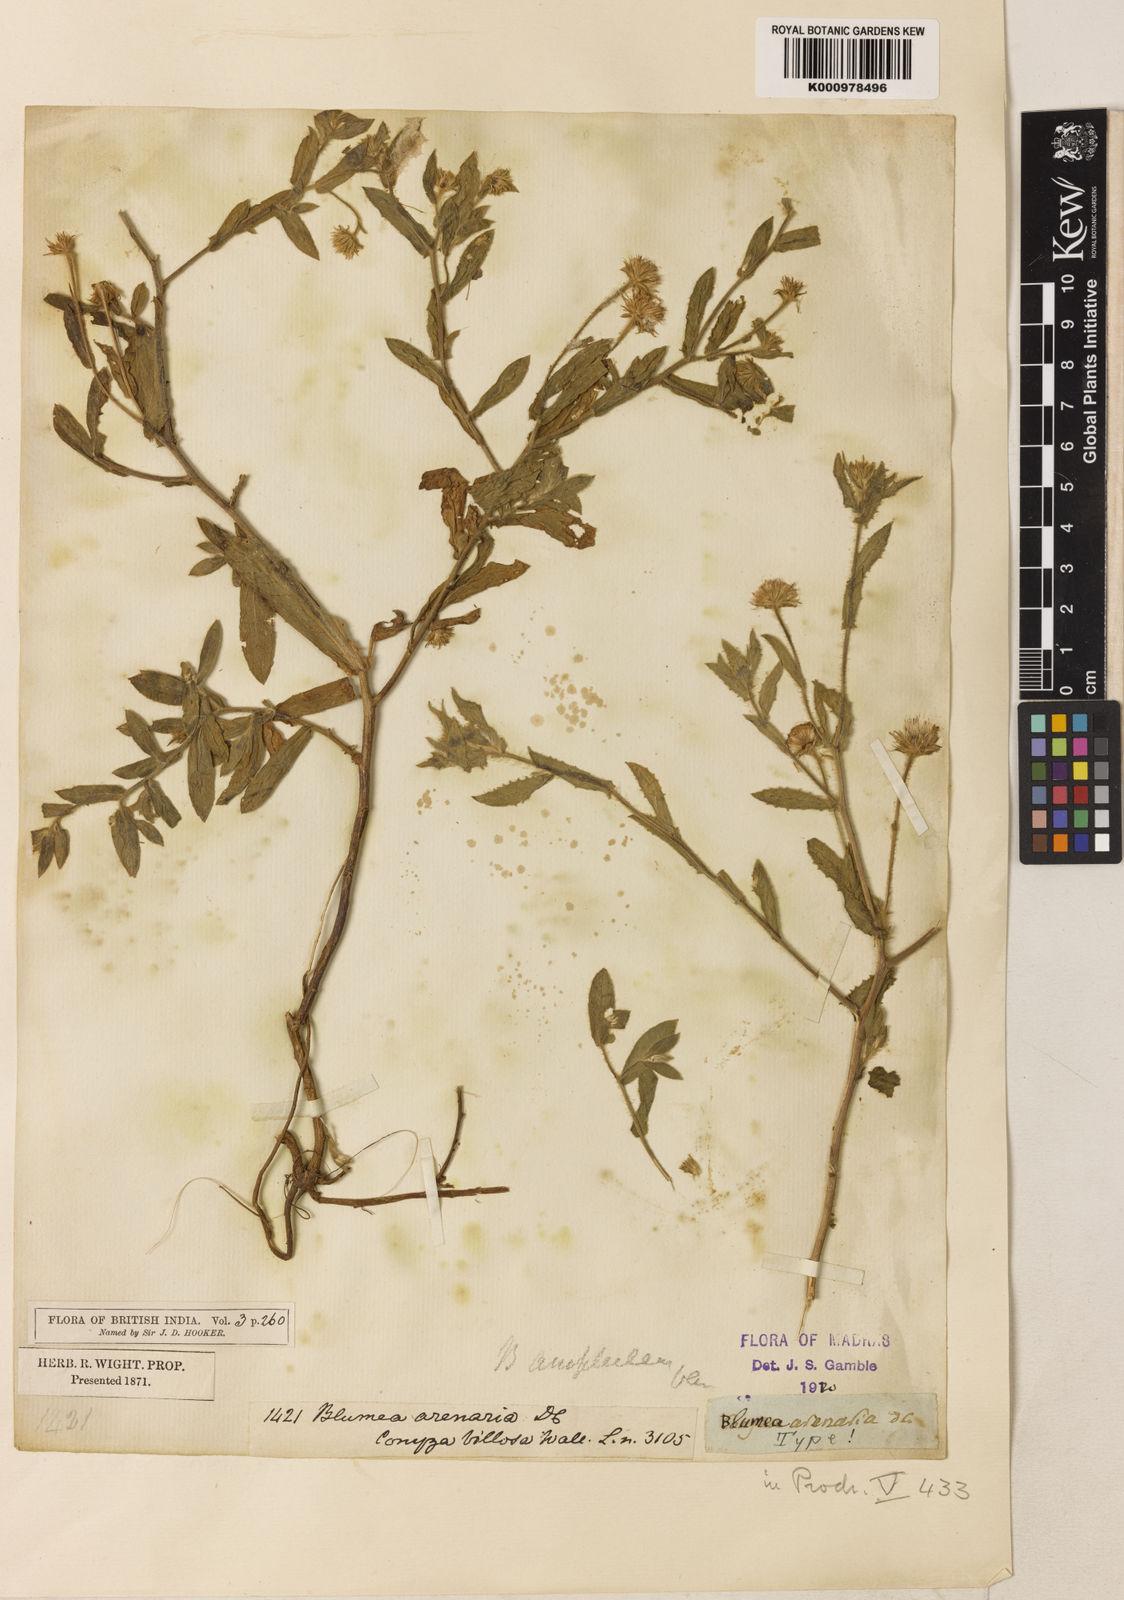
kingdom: Plantae
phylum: Tracheophyta
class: Magnoliopsida
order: Asterales
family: Asteraceae
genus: Blumea
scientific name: Blumea obliqua
